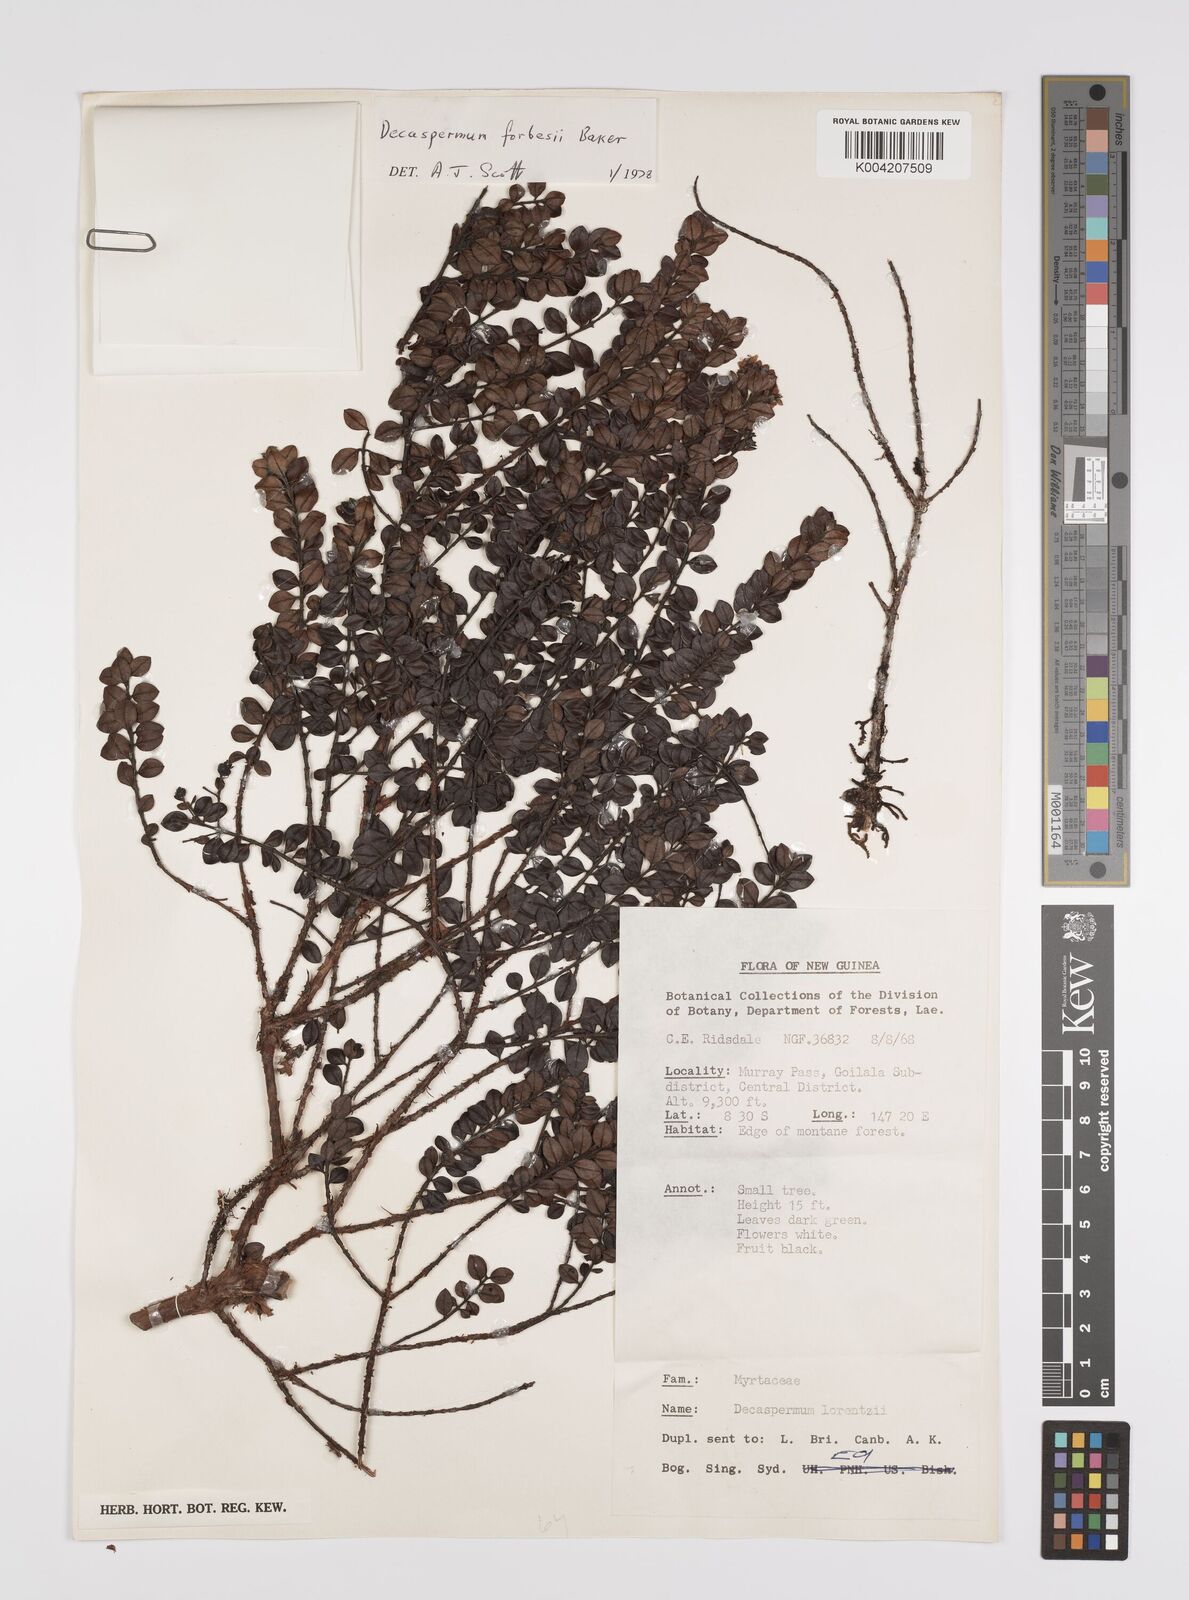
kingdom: Plantae
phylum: Tracheophyta
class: Magnoliopsida
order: Myrtales
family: Myrtaceae
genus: Decaspermum
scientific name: Decaspermum alpinum
